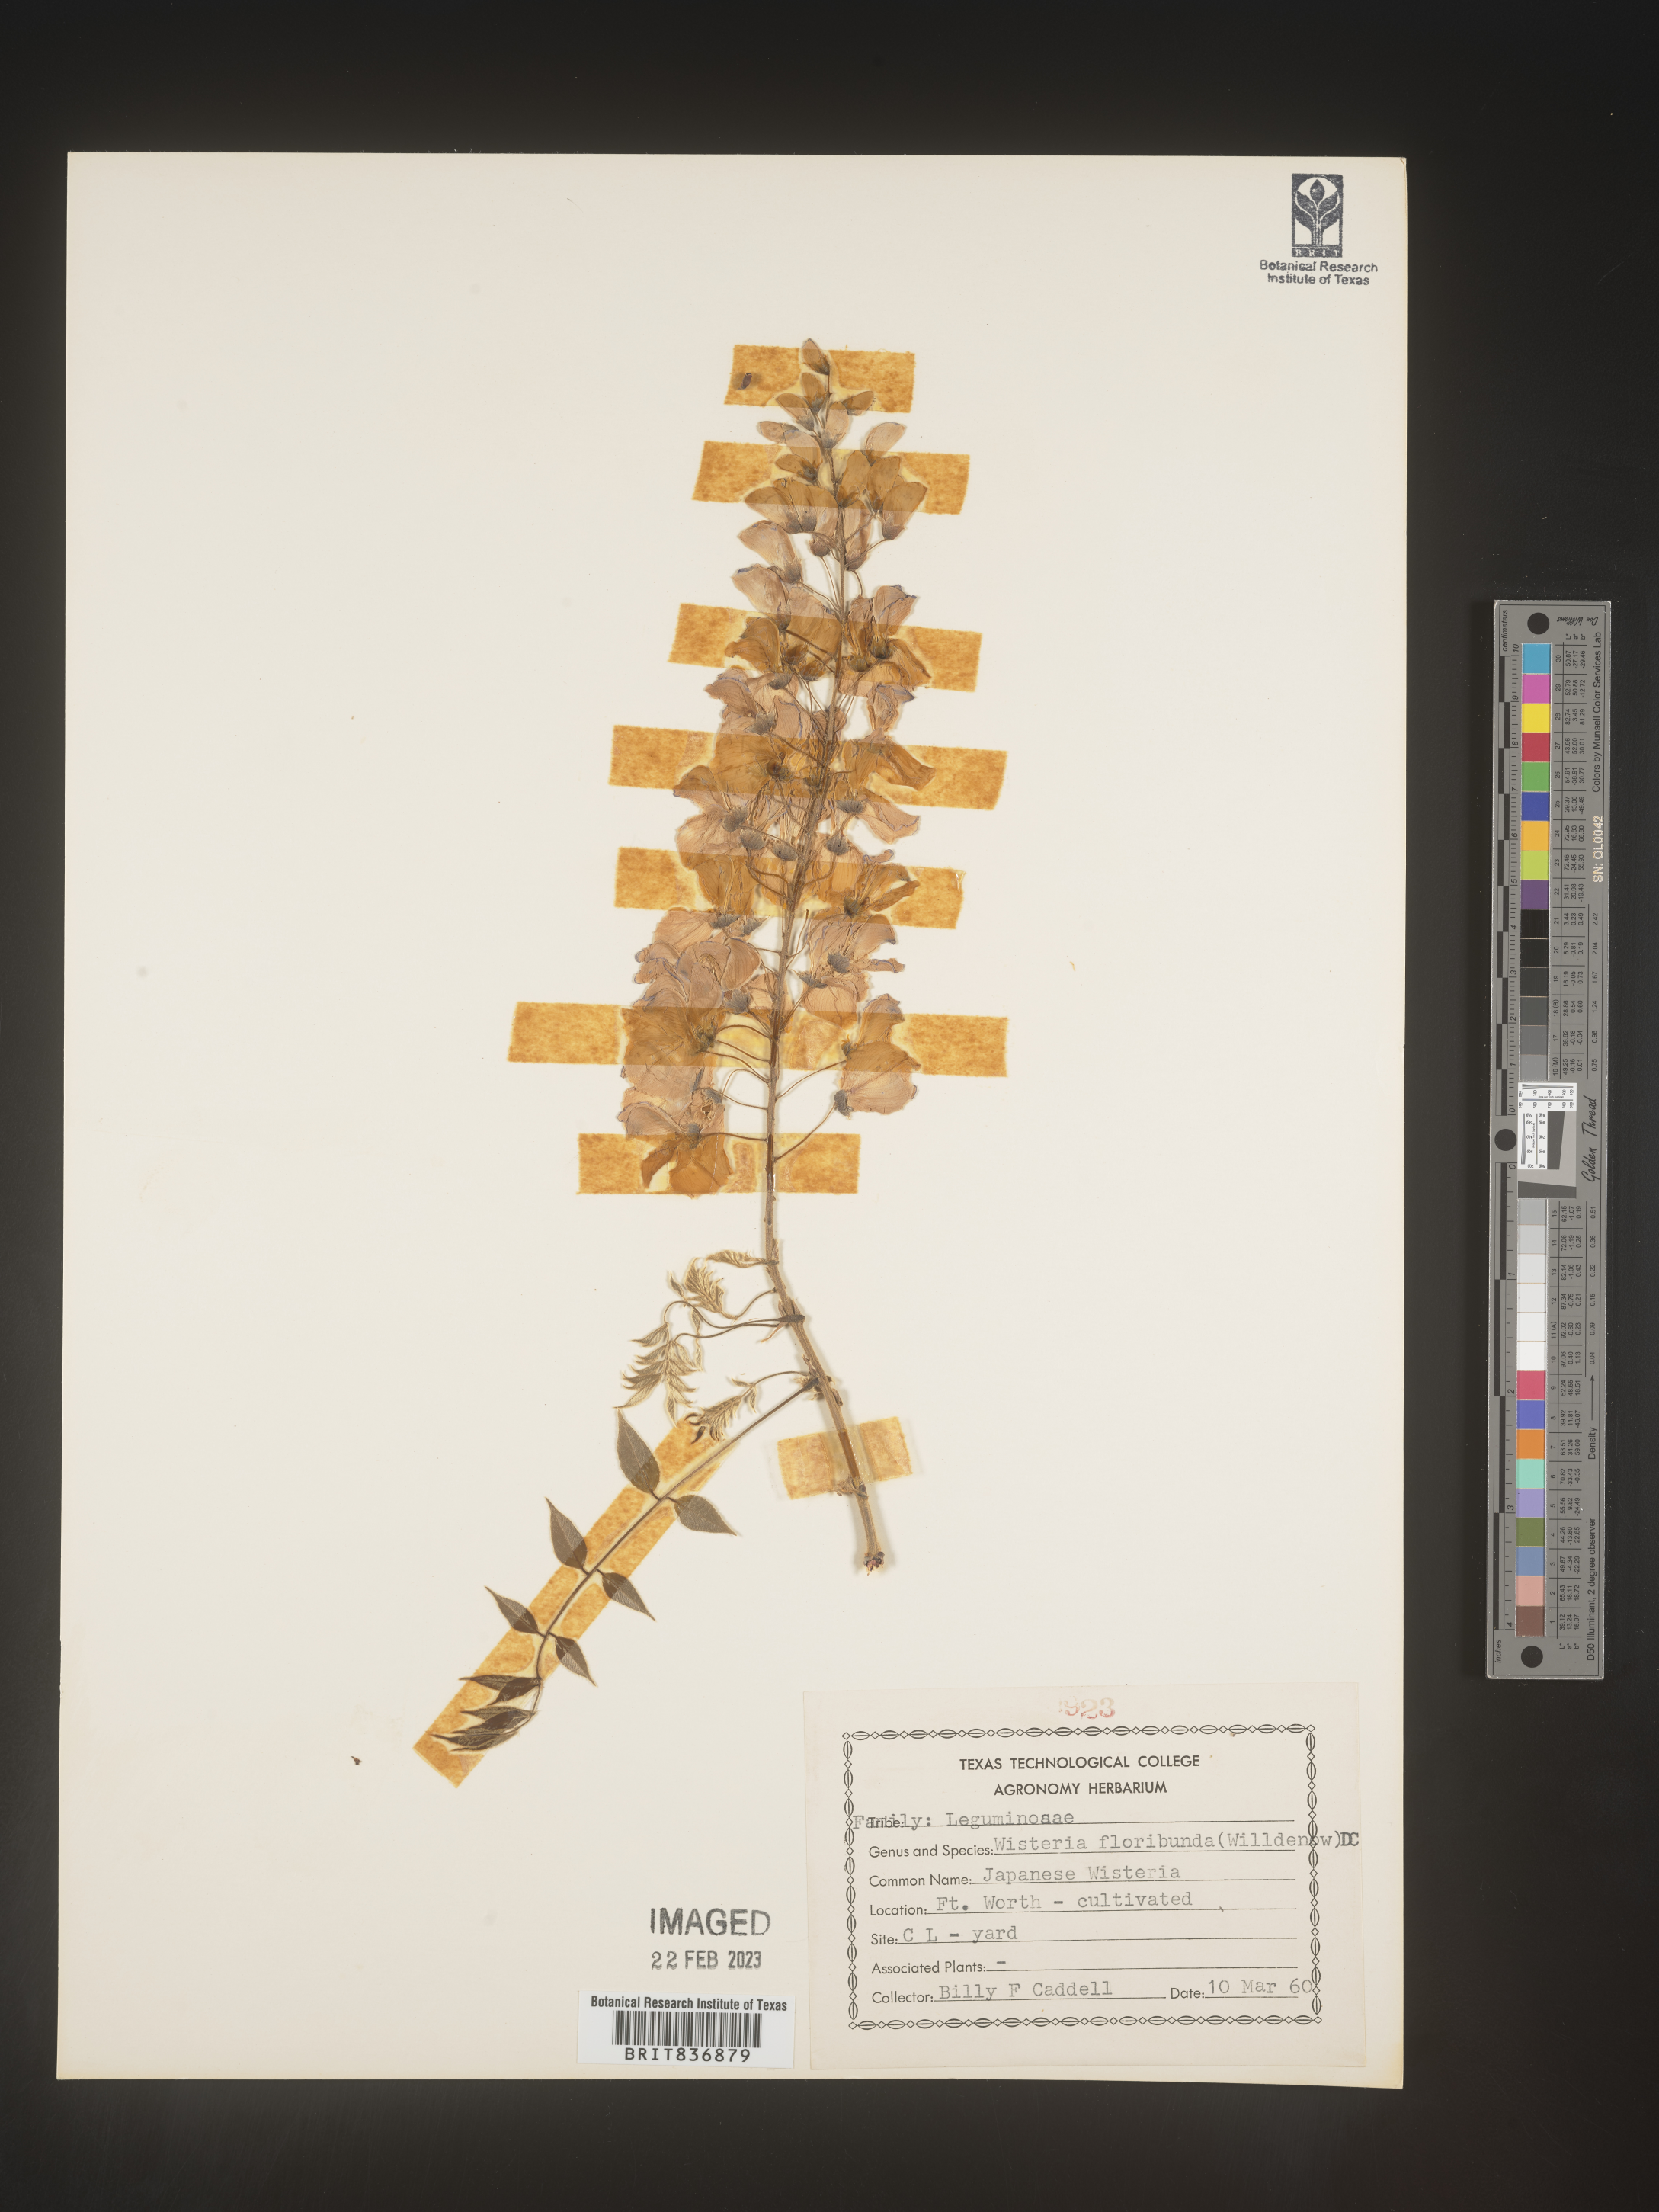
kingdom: Plantae
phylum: Tracheophyta
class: Magnoliopsida
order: Fabales
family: Fabaceae
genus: Wisteria
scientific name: Wisteria
